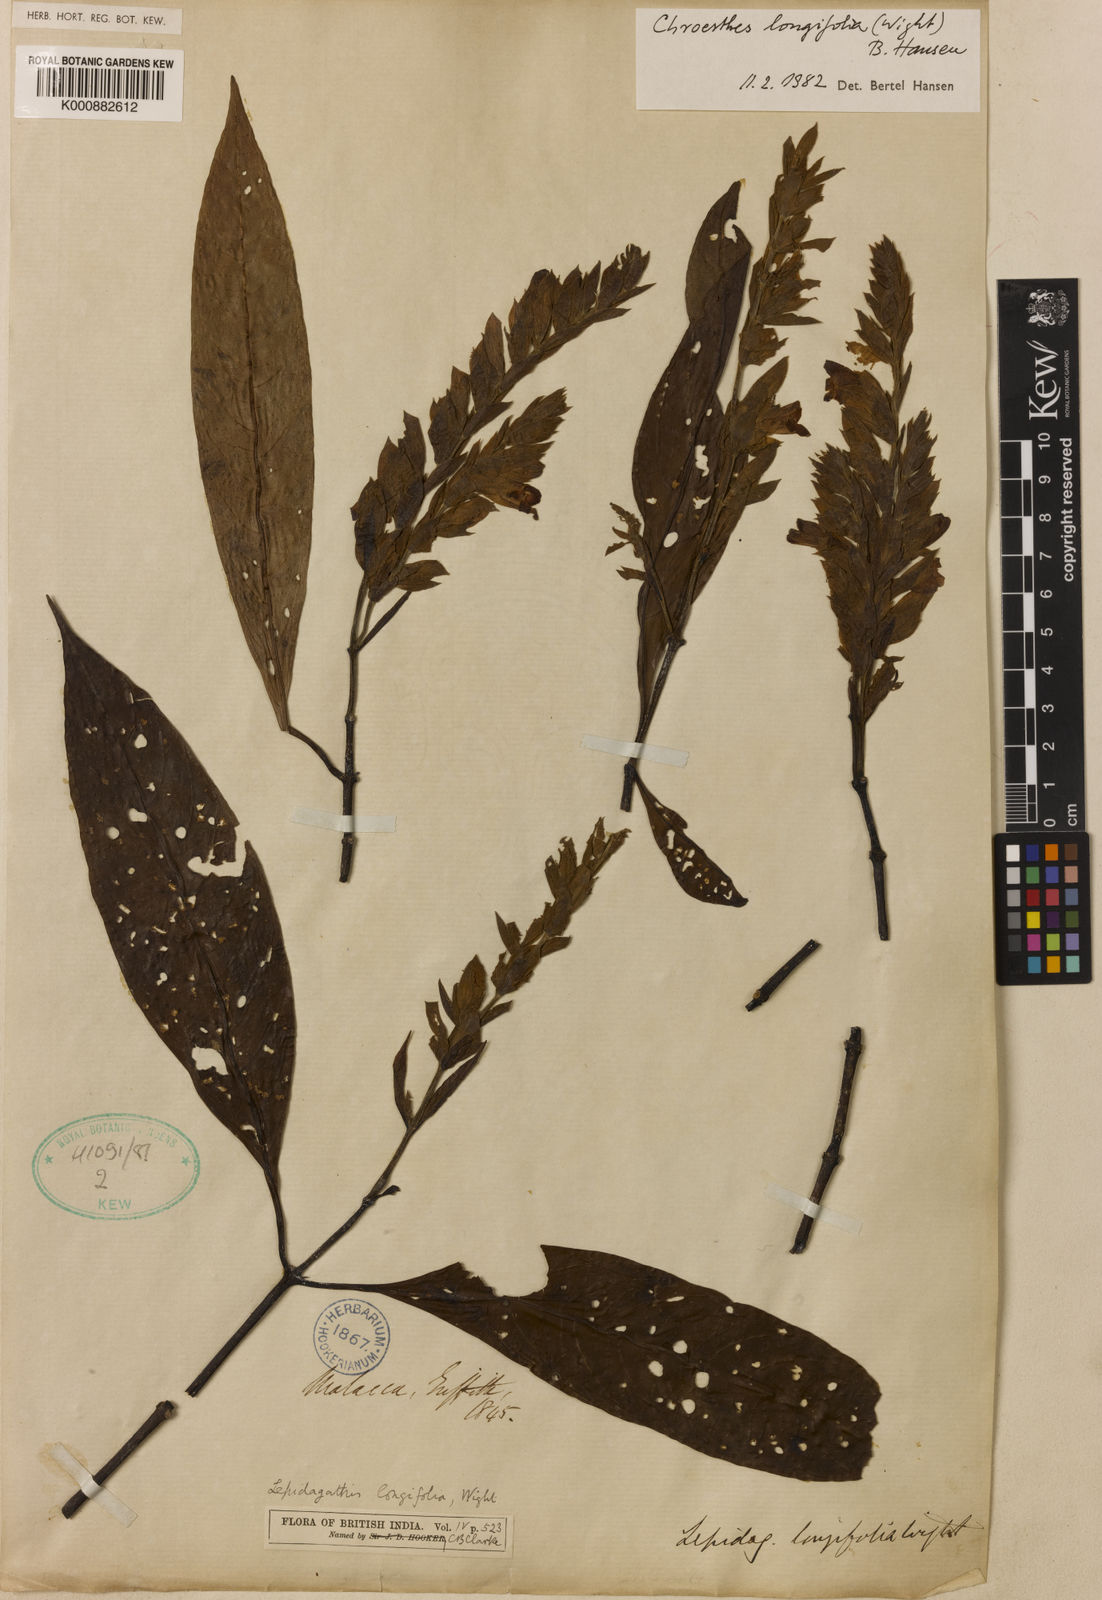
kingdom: Plantae
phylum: Tracheophyta
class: Magnoliopsida
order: Lamiales
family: Acanthaceae
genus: Chroesthes
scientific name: Chroesthes longifolia
